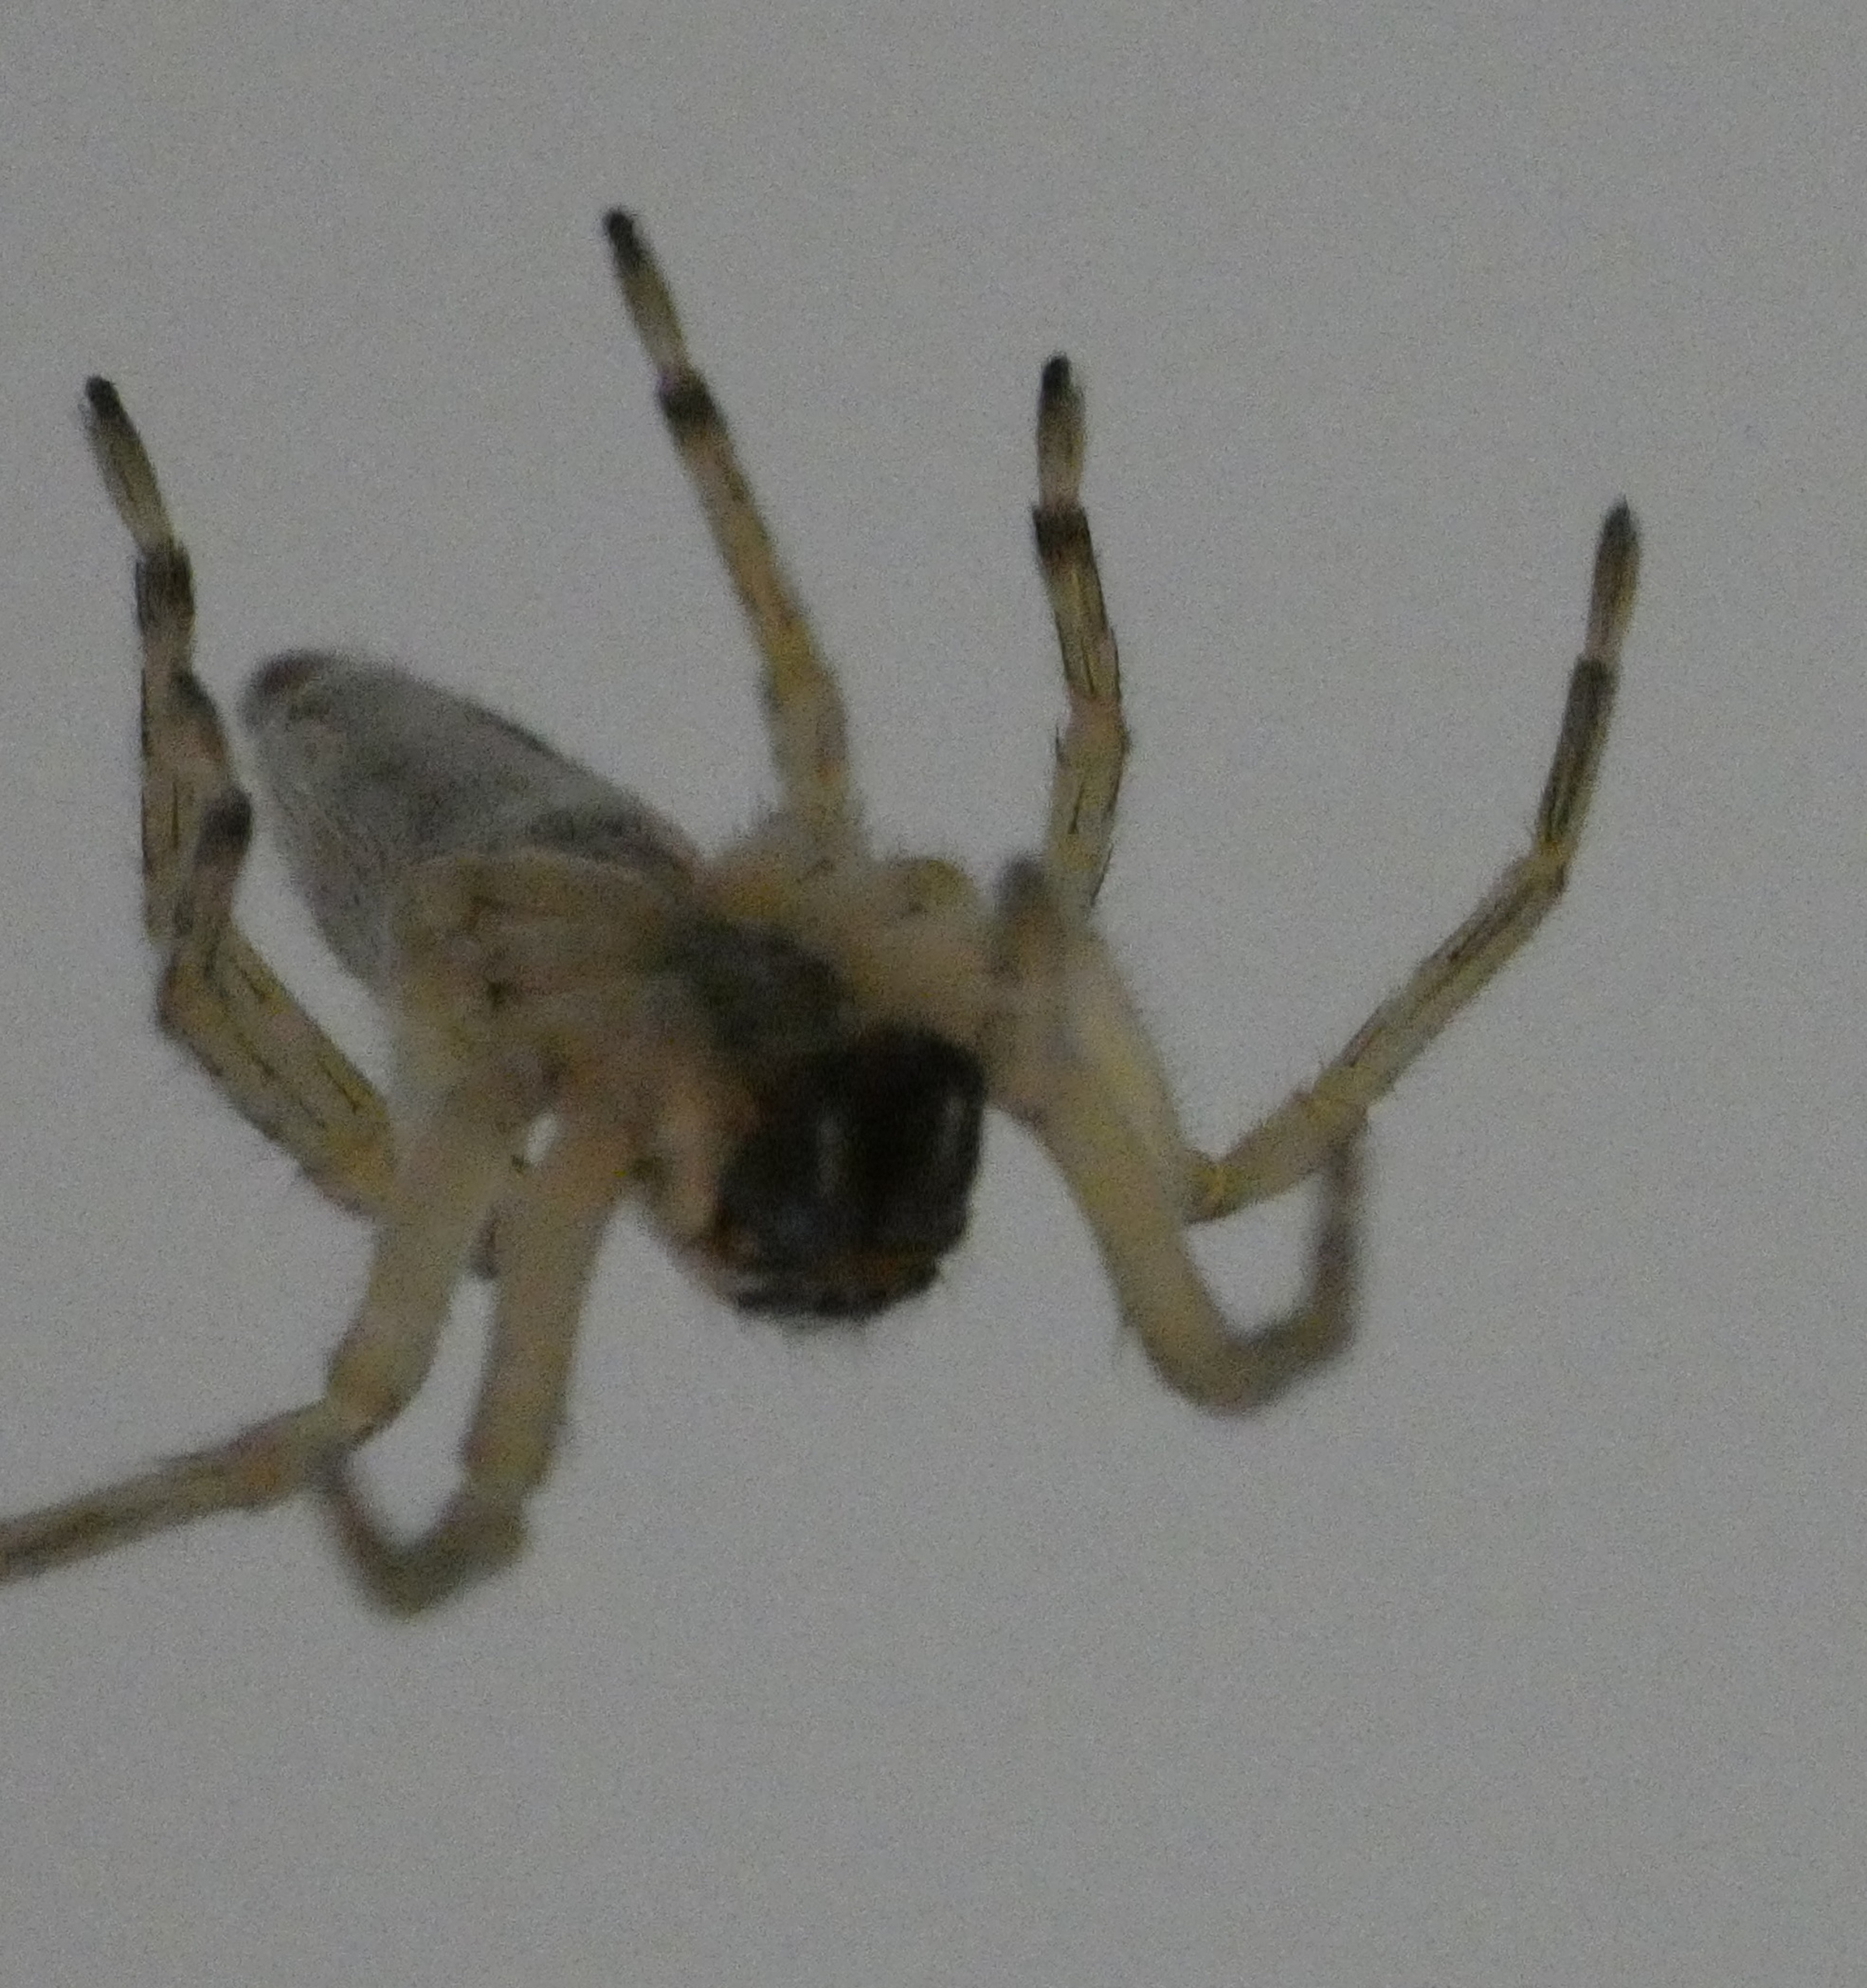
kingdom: Animalia
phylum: Arthropoda
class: Arachnida
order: Araneae
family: Clubionidae
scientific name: Clubionidae
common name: Sækspindere
